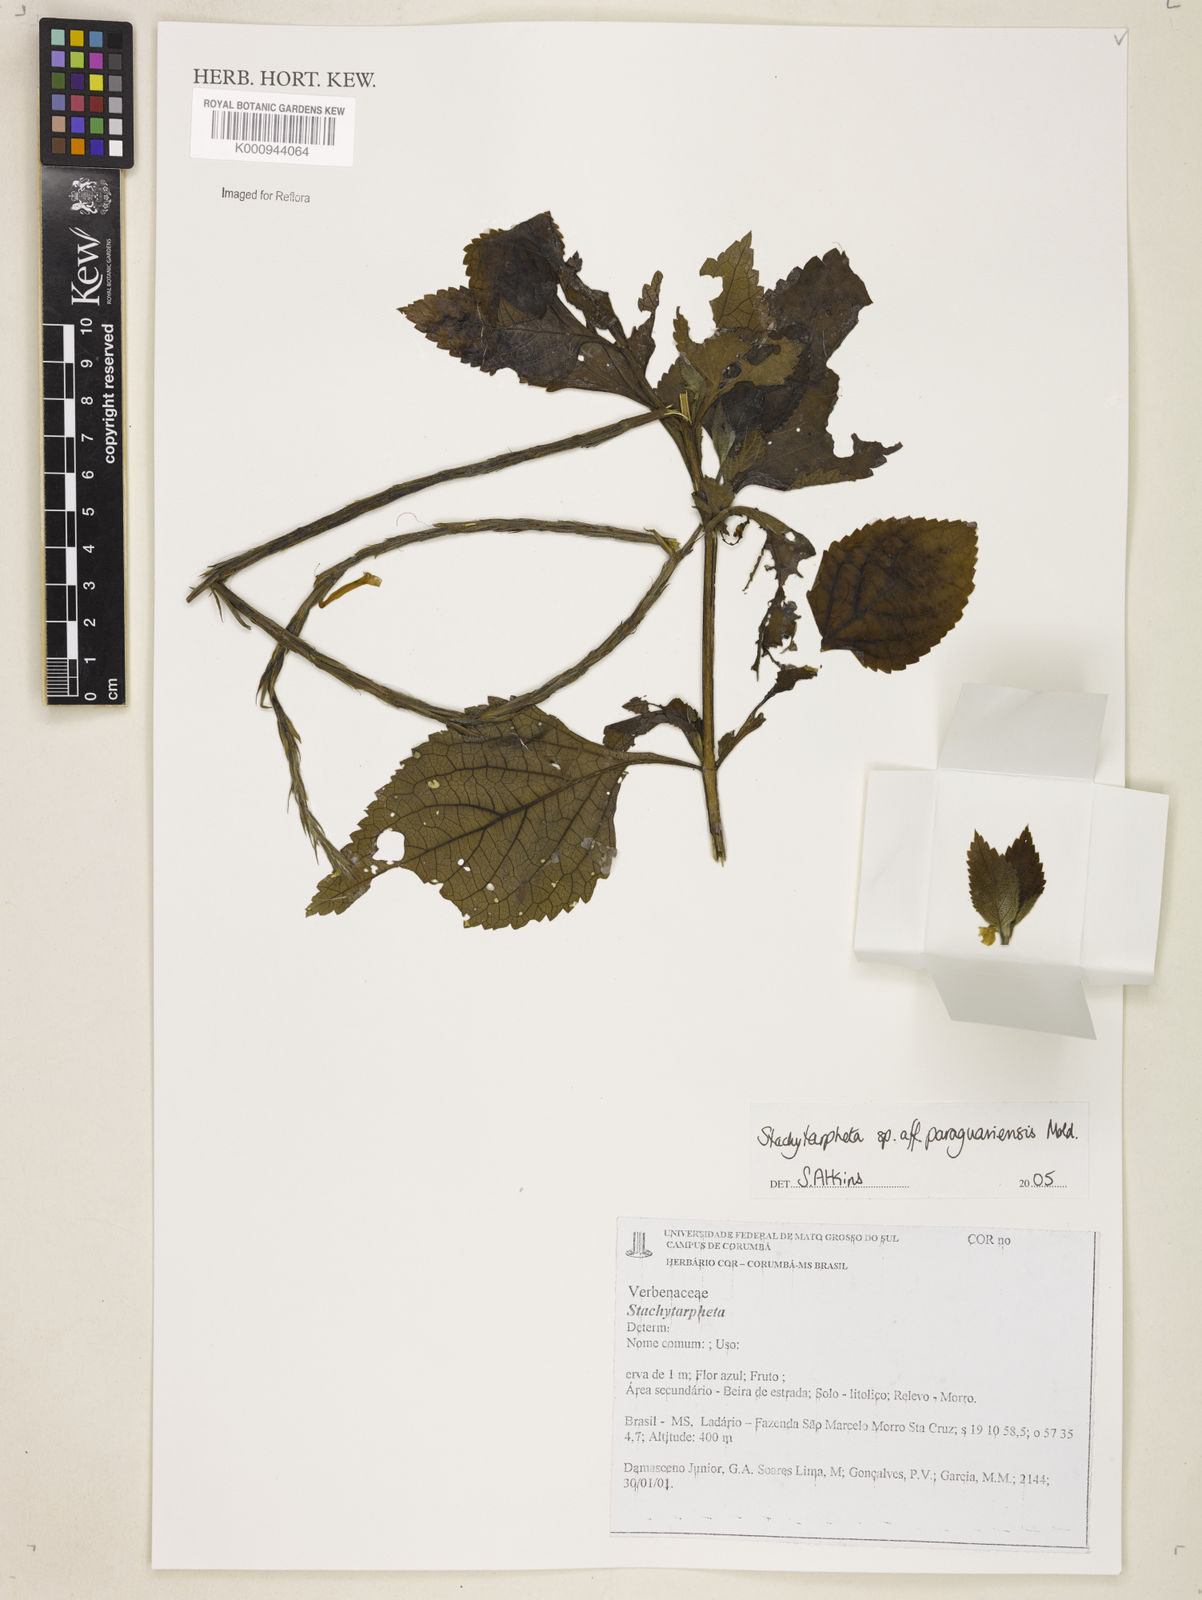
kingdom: Plantae
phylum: Tracheophyta
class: Magnoliopsida
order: Lamiales
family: Verbenaceae
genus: Stachytarpheta
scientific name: Stachytarpheta
